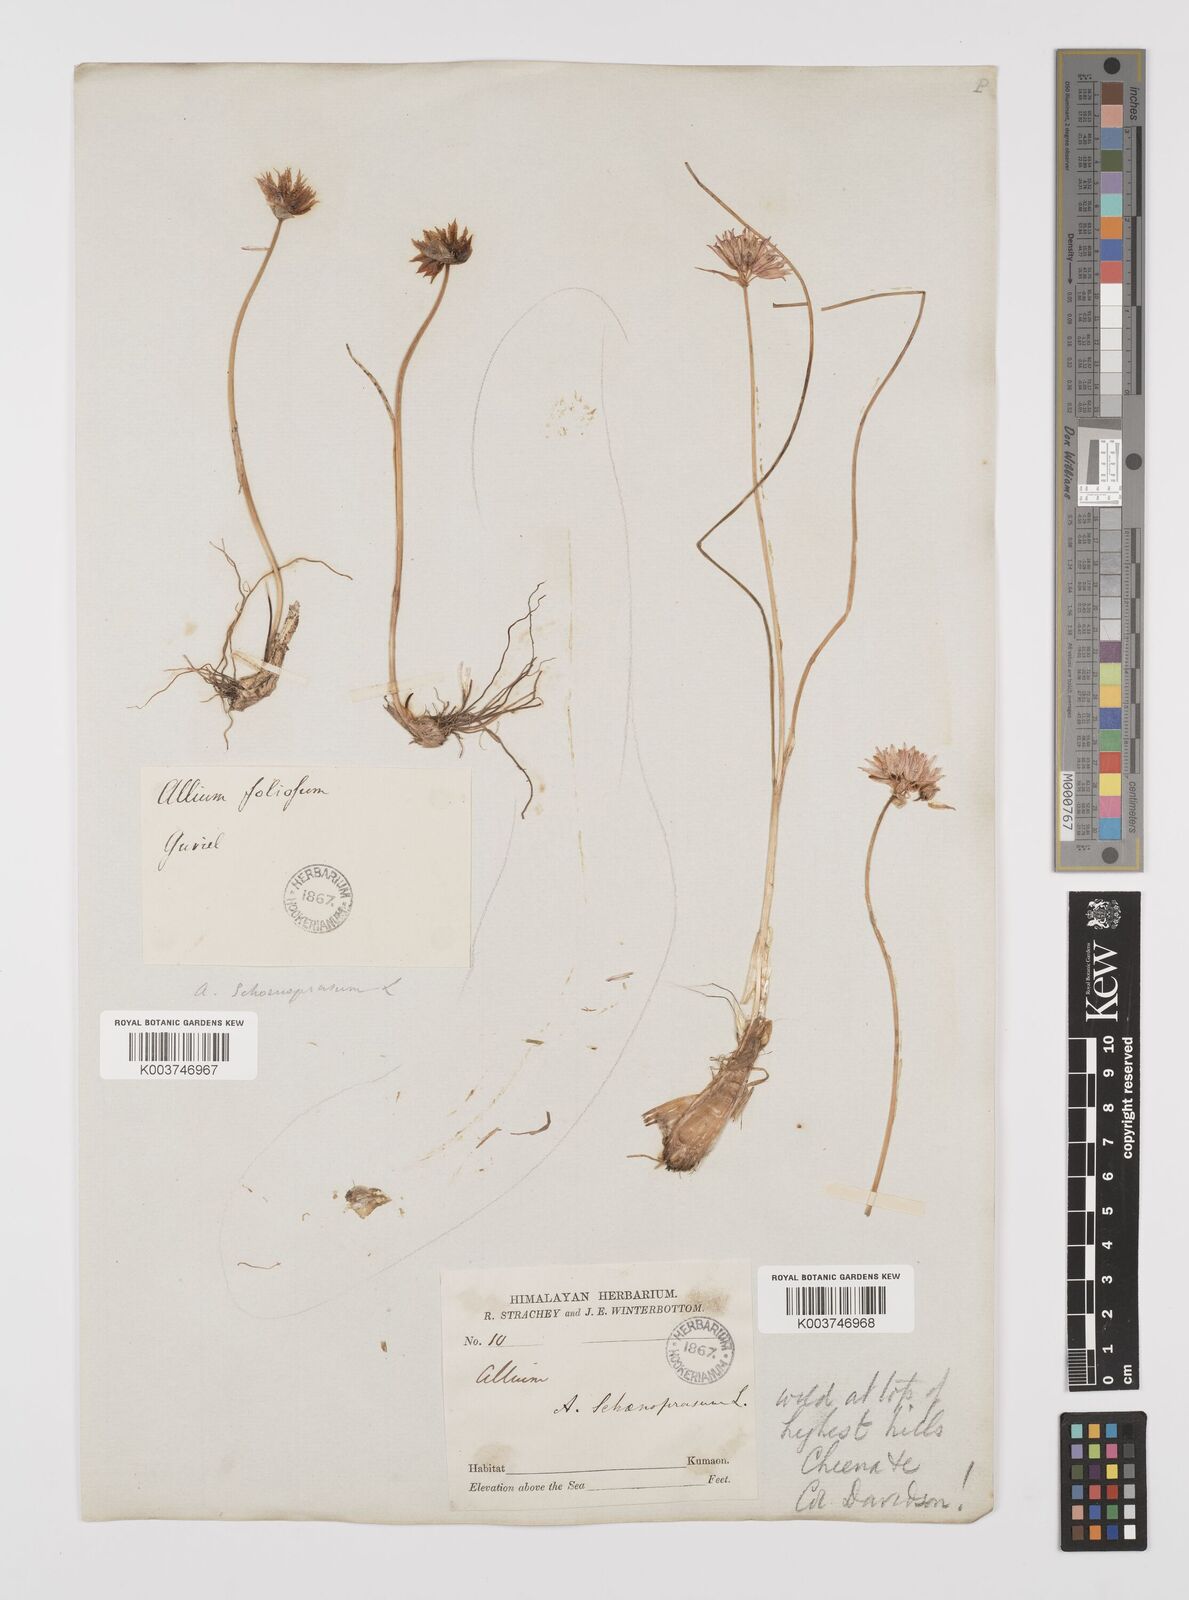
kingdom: Plantae
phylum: Tracheophyta
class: Liliopsida
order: Asparagales
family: Amaryllidaceae
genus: Allium
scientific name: Allium schoenoprasum
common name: Chives
